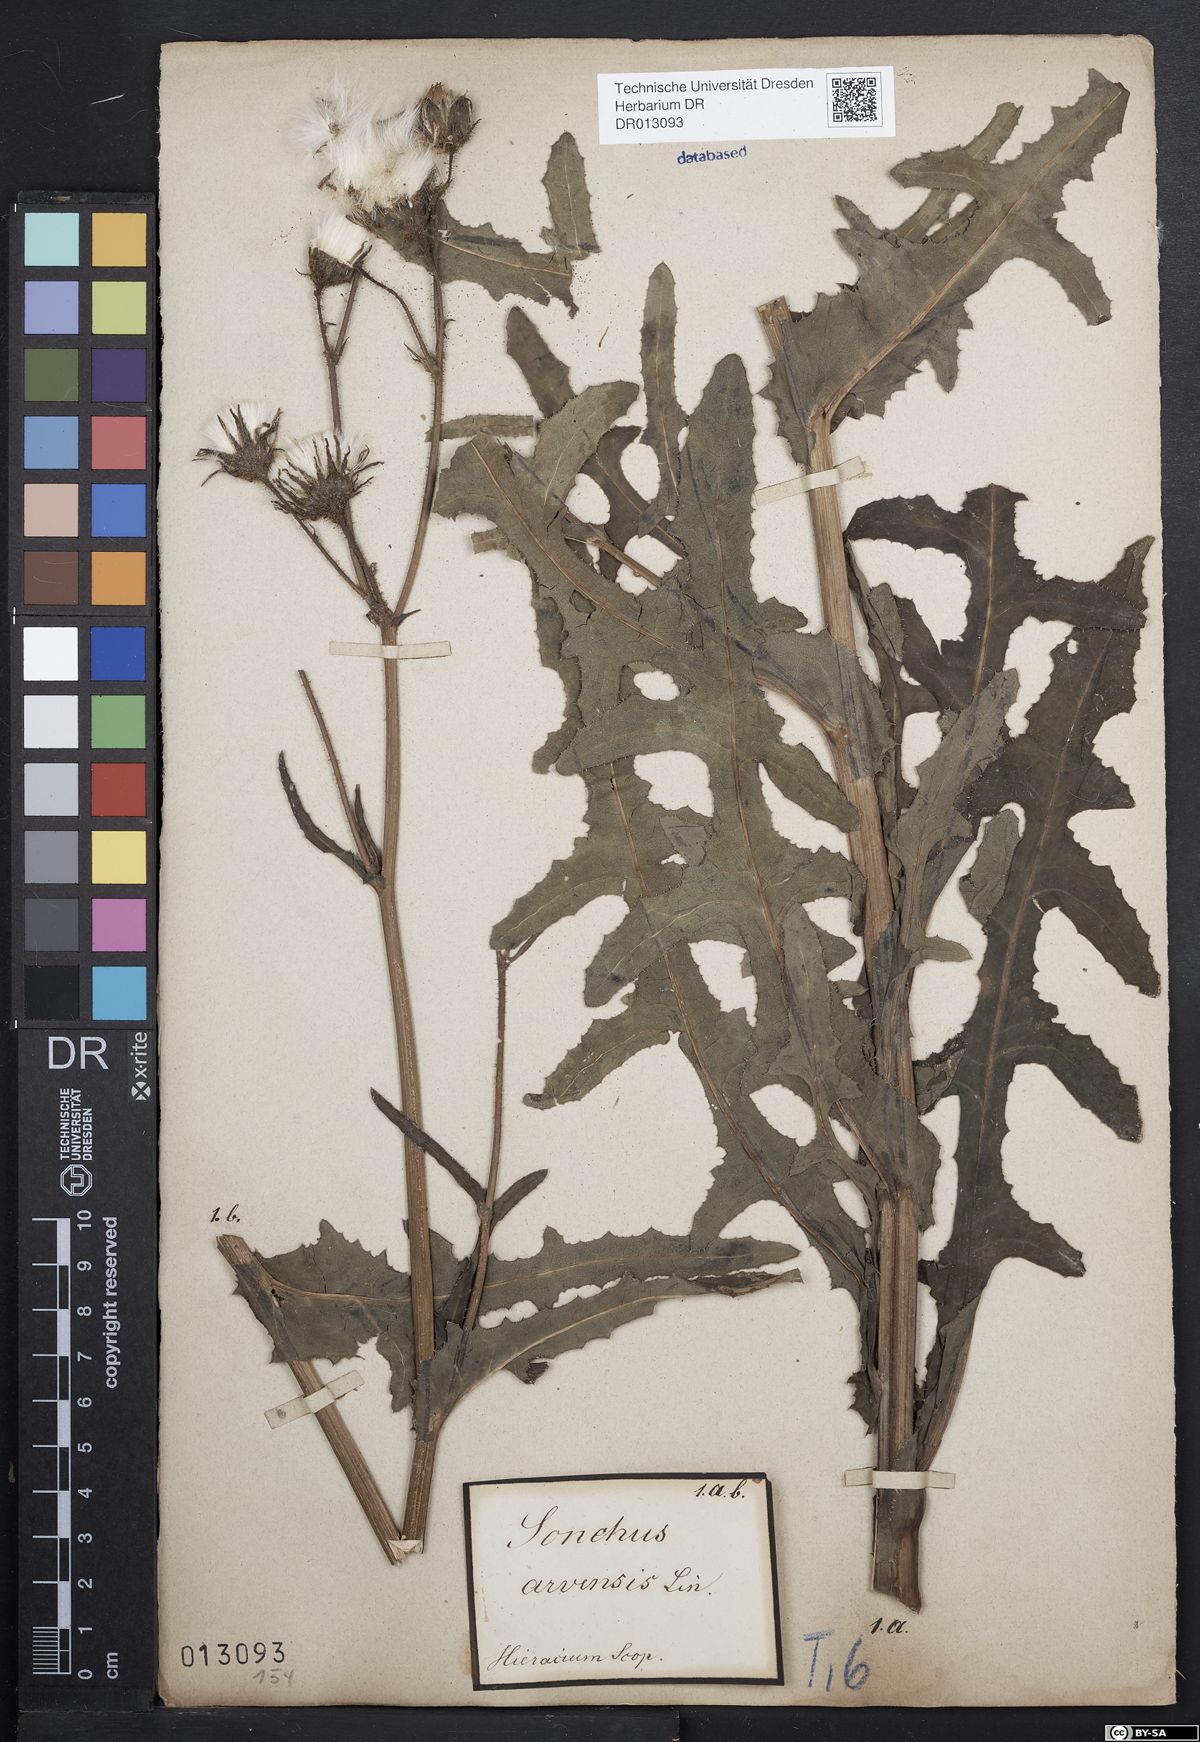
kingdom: Plantae
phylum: Tracheophyta
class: Magnoliopsida
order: Asterales
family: Asteraceae
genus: Sonchus
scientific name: Sonchus arvensis
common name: Perennial sow-thistle
